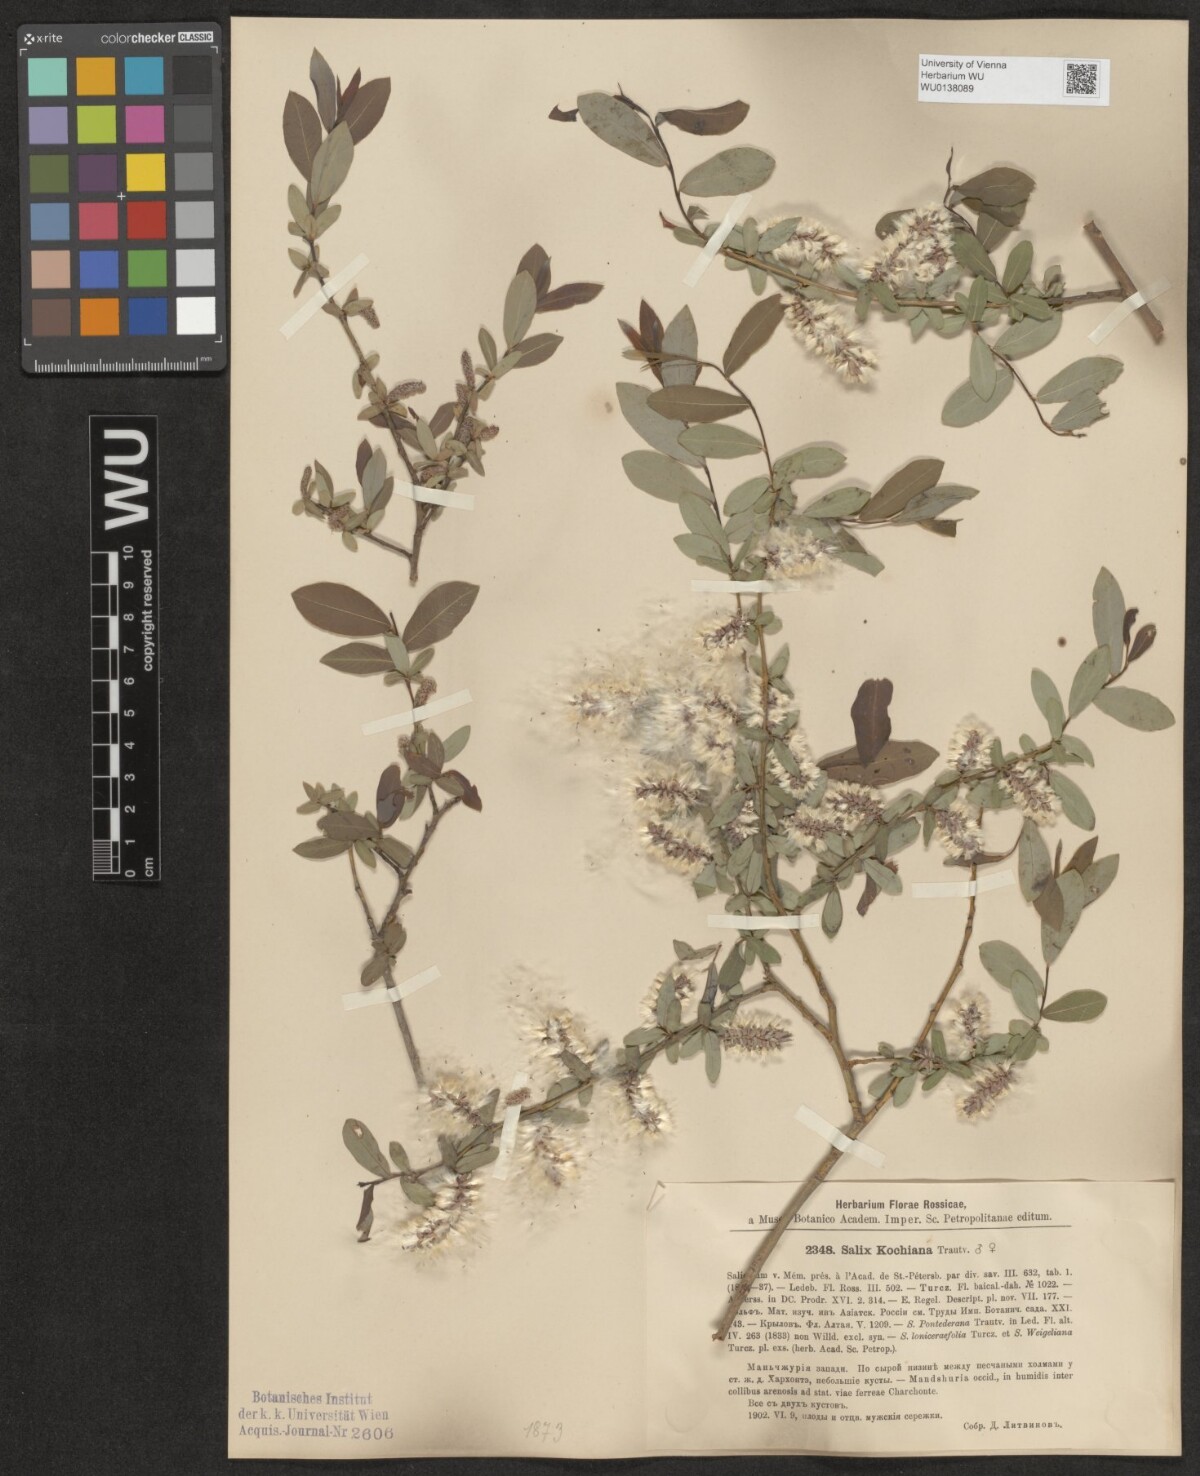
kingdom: Plantae
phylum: Tracheophyta
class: Magnoliopsida
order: Malpighiales
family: Salicaceae
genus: Salix
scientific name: Salix kochiana
